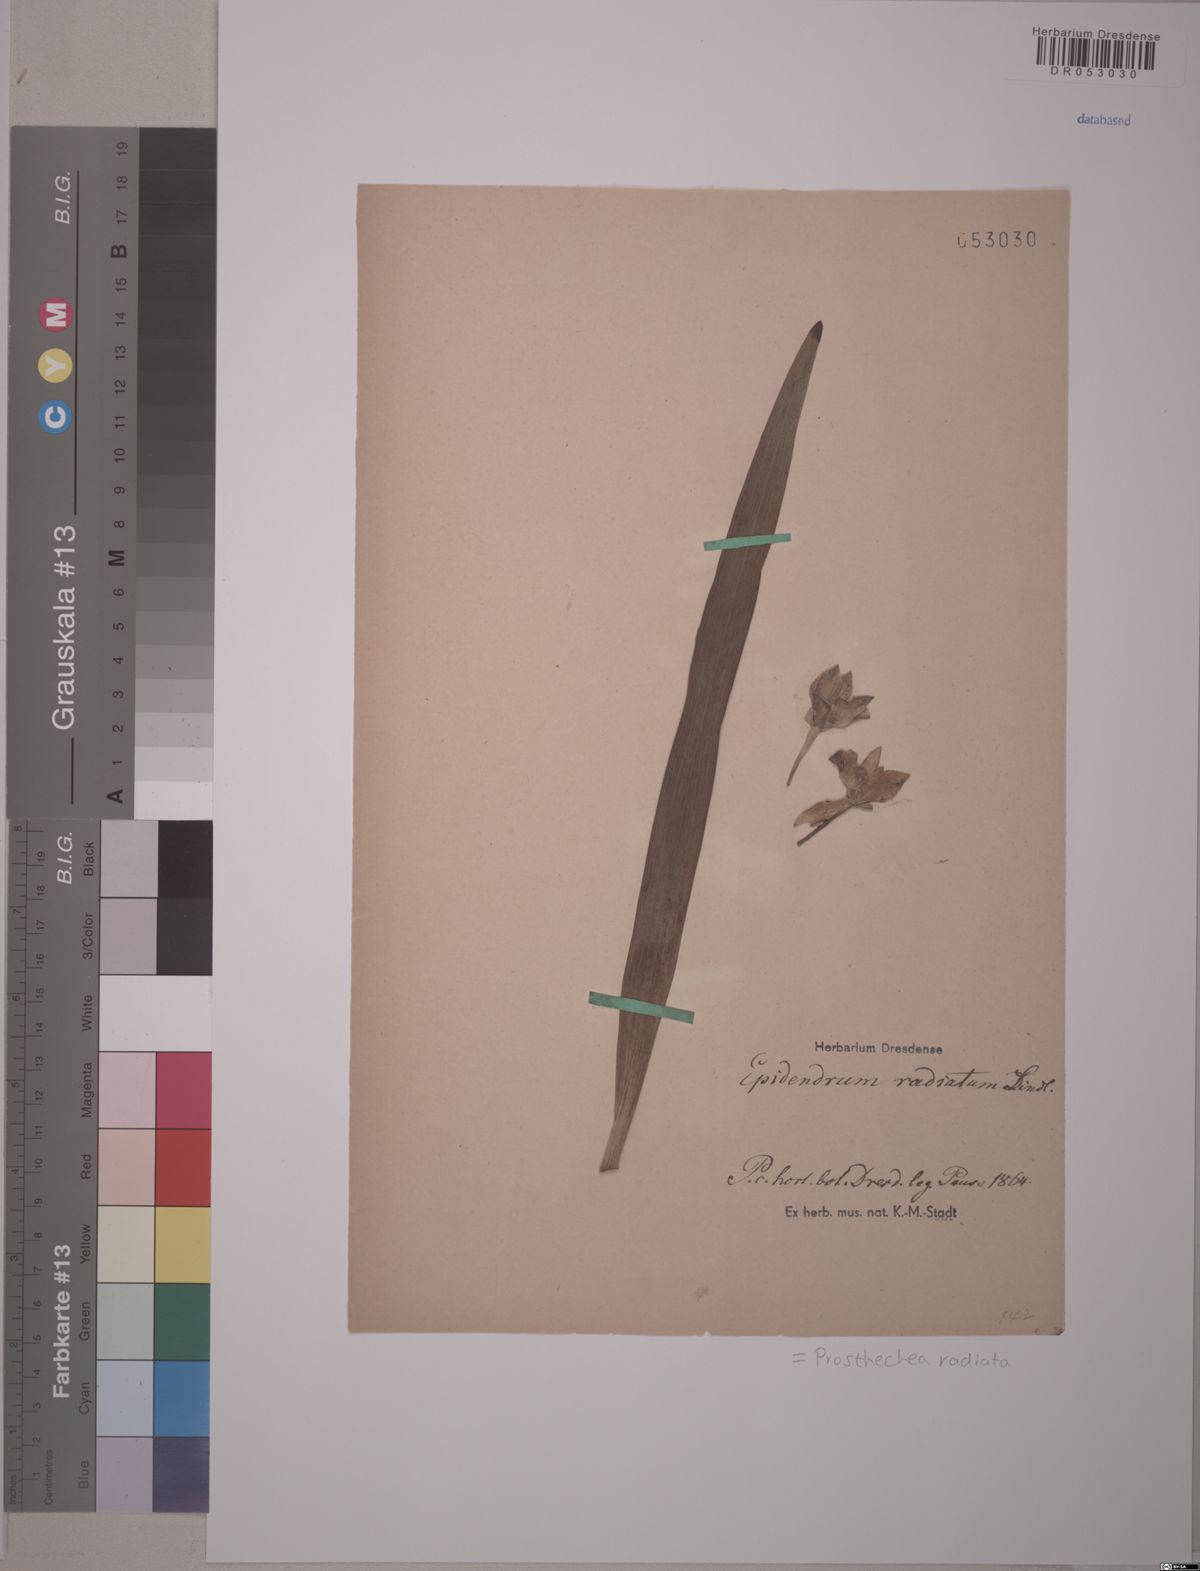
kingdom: Plantae
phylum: Tracheophyta
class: Liliopsida
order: Asparagales
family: Orchidaceae
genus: Prosthechea
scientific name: Prosthechea radiata
